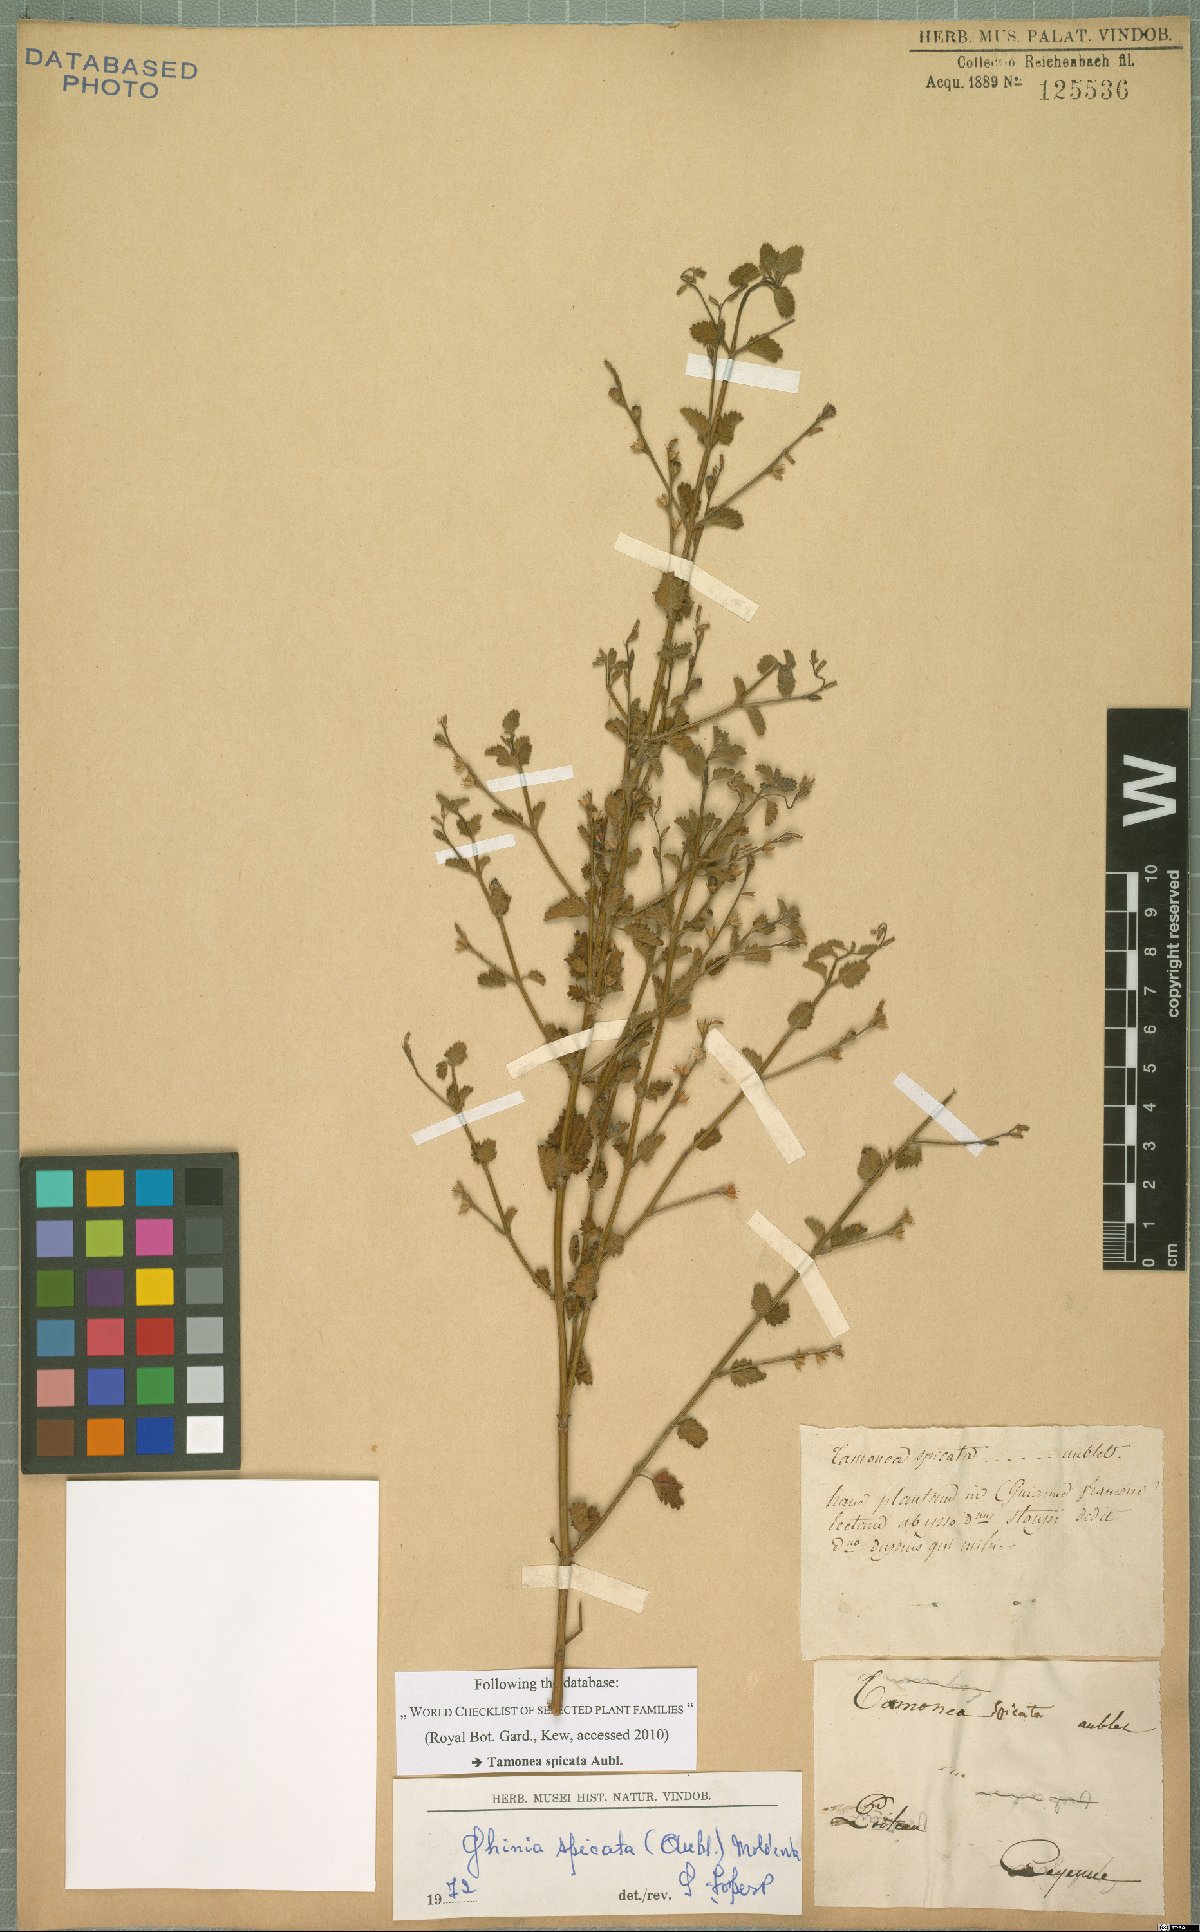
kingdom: Plantae
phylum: Tracheophyta
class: Magnoliopsida
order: Lamiales
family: Verbenaceae
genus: Tamonea
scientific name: Tamonea spicata
